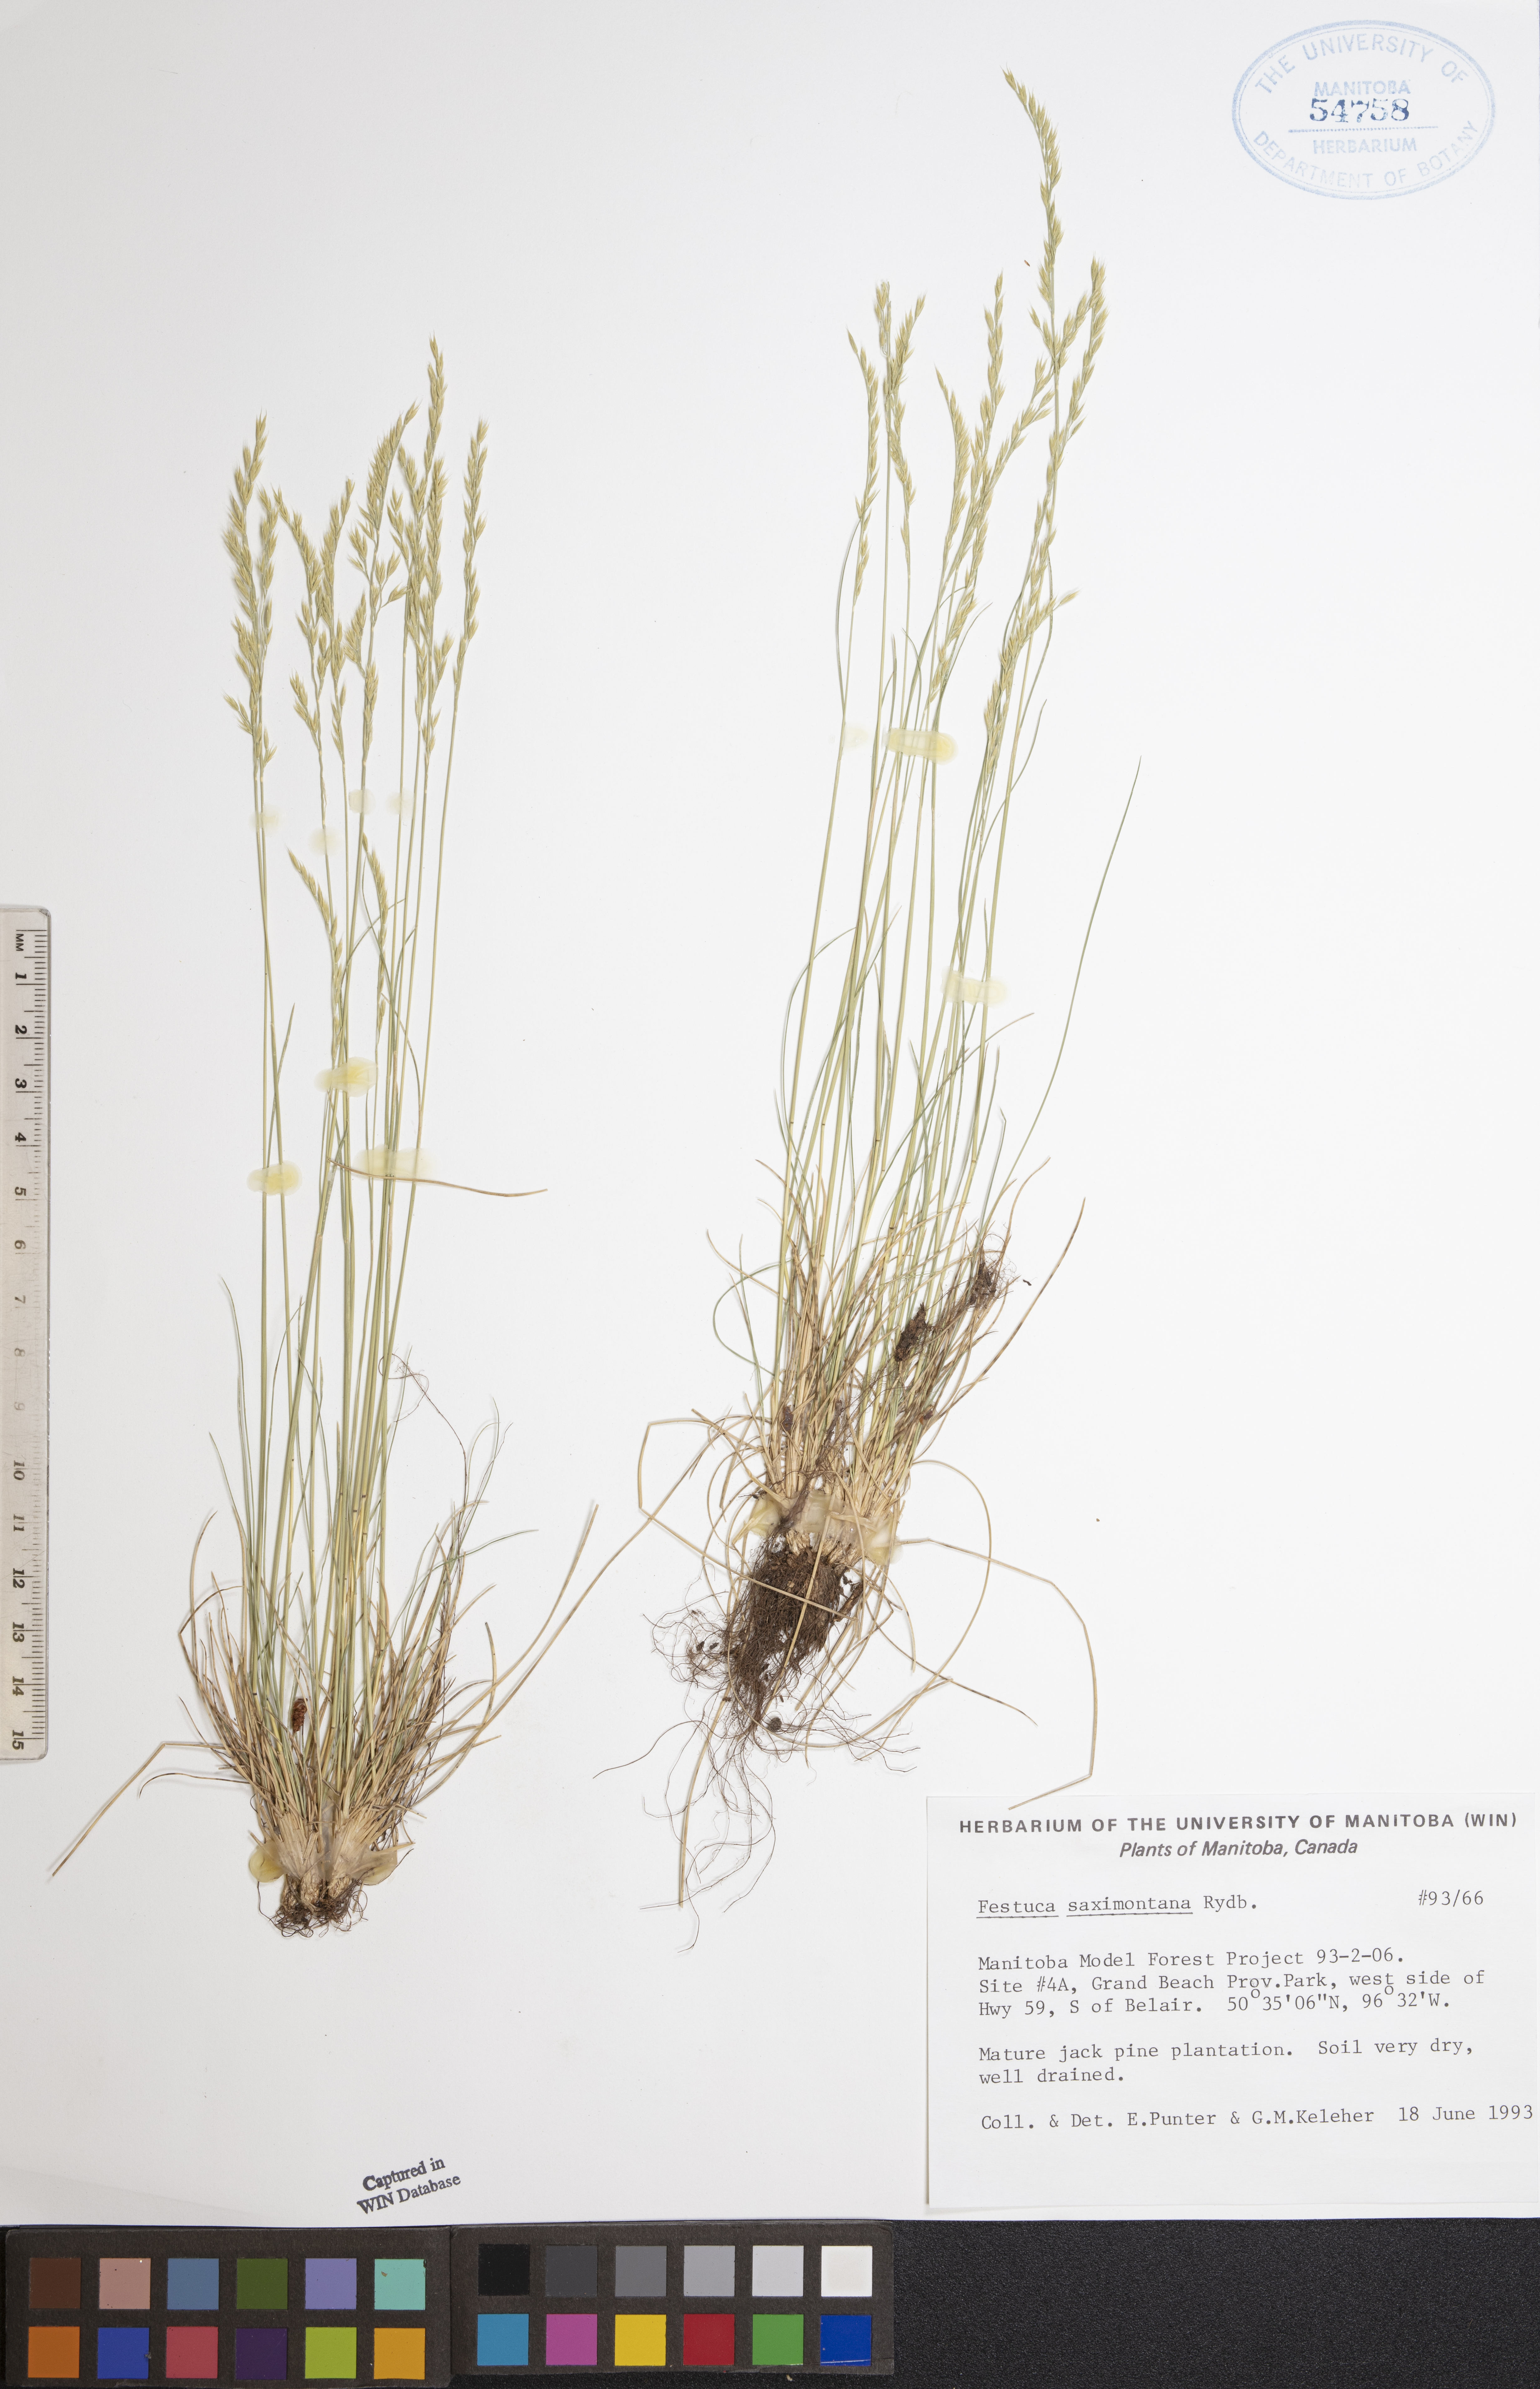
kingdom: Plantae
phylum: Tracheophyta
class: Liliopsida
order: Poales
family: Poaceae
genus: Festuca
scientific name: Festuca saximontana
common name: Mountain fescue
